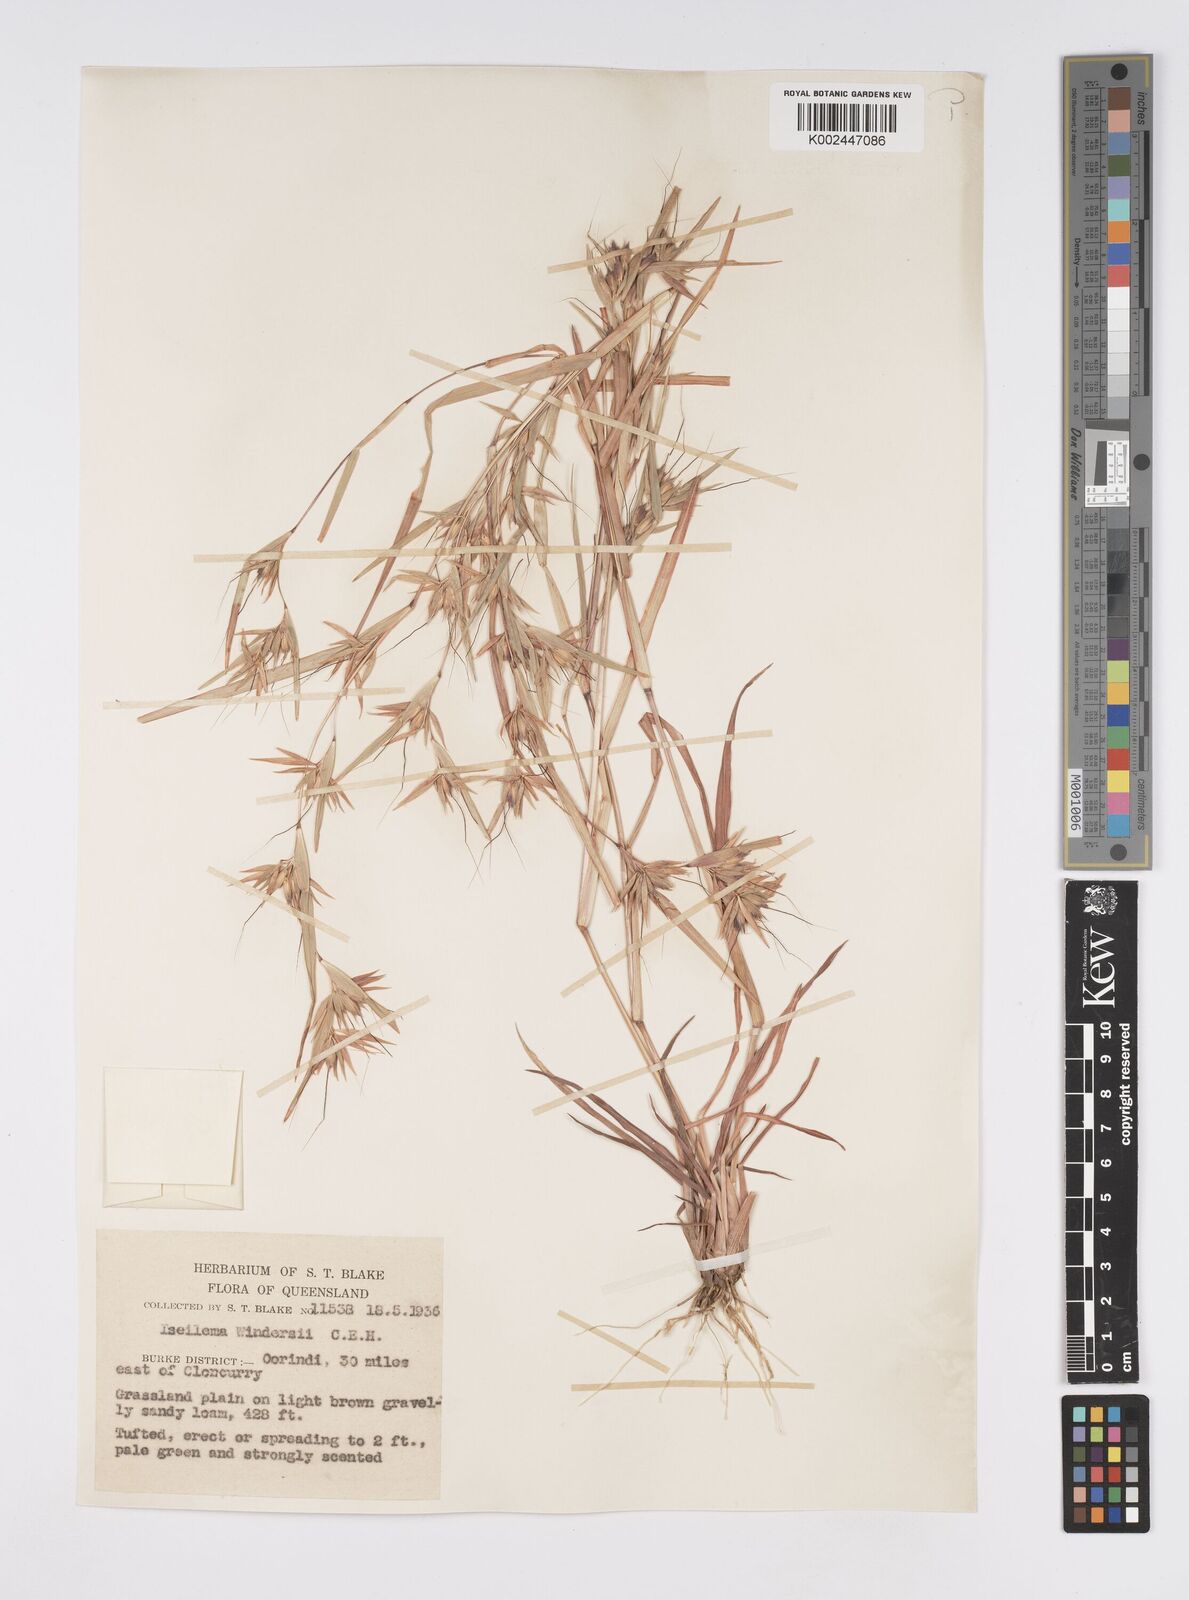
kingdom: Plantae
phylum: Tracheophyta
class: Liliopsida
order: Poales
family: Poaceae
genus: Iseilema
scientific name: Iseilema windersii
